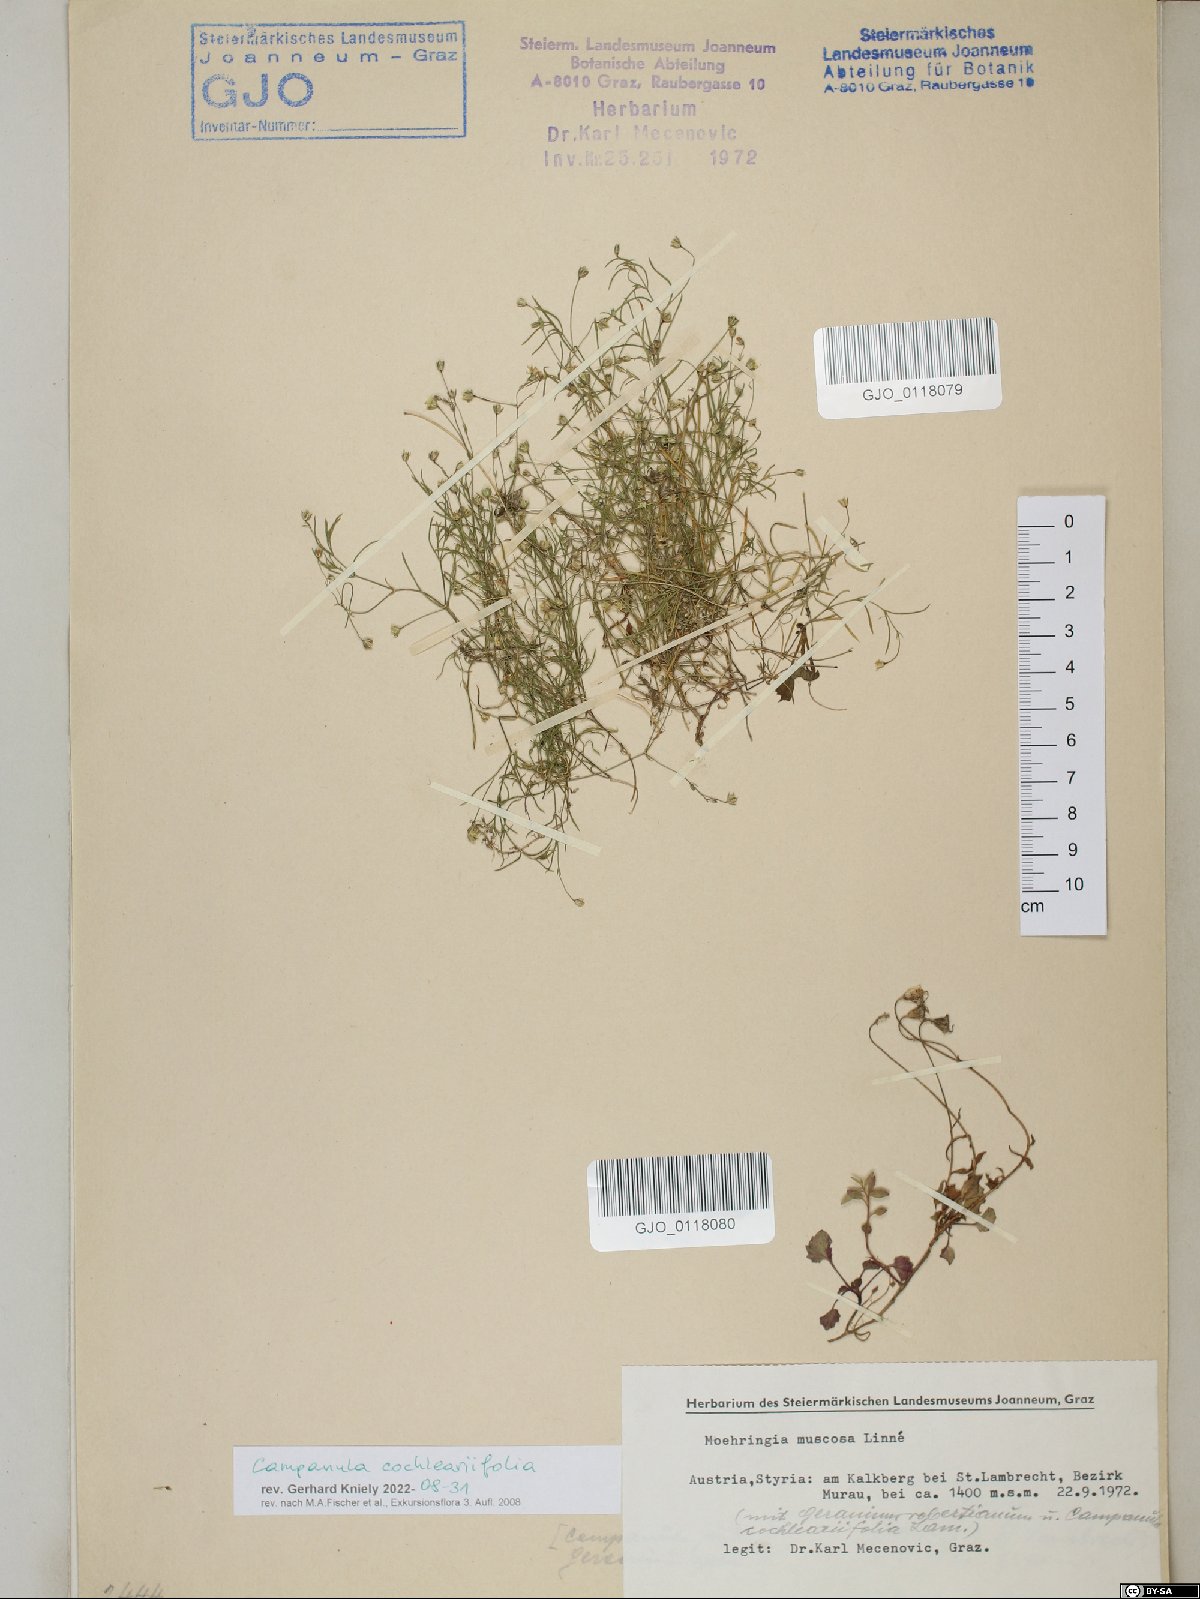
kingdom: Plantae
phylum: Tracheophyta
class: Magnoliopsida
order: Asterales
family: Campanulaceae
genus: Campanula
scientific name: Campanula cochleariifolia
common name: Fairies'-thimbles
